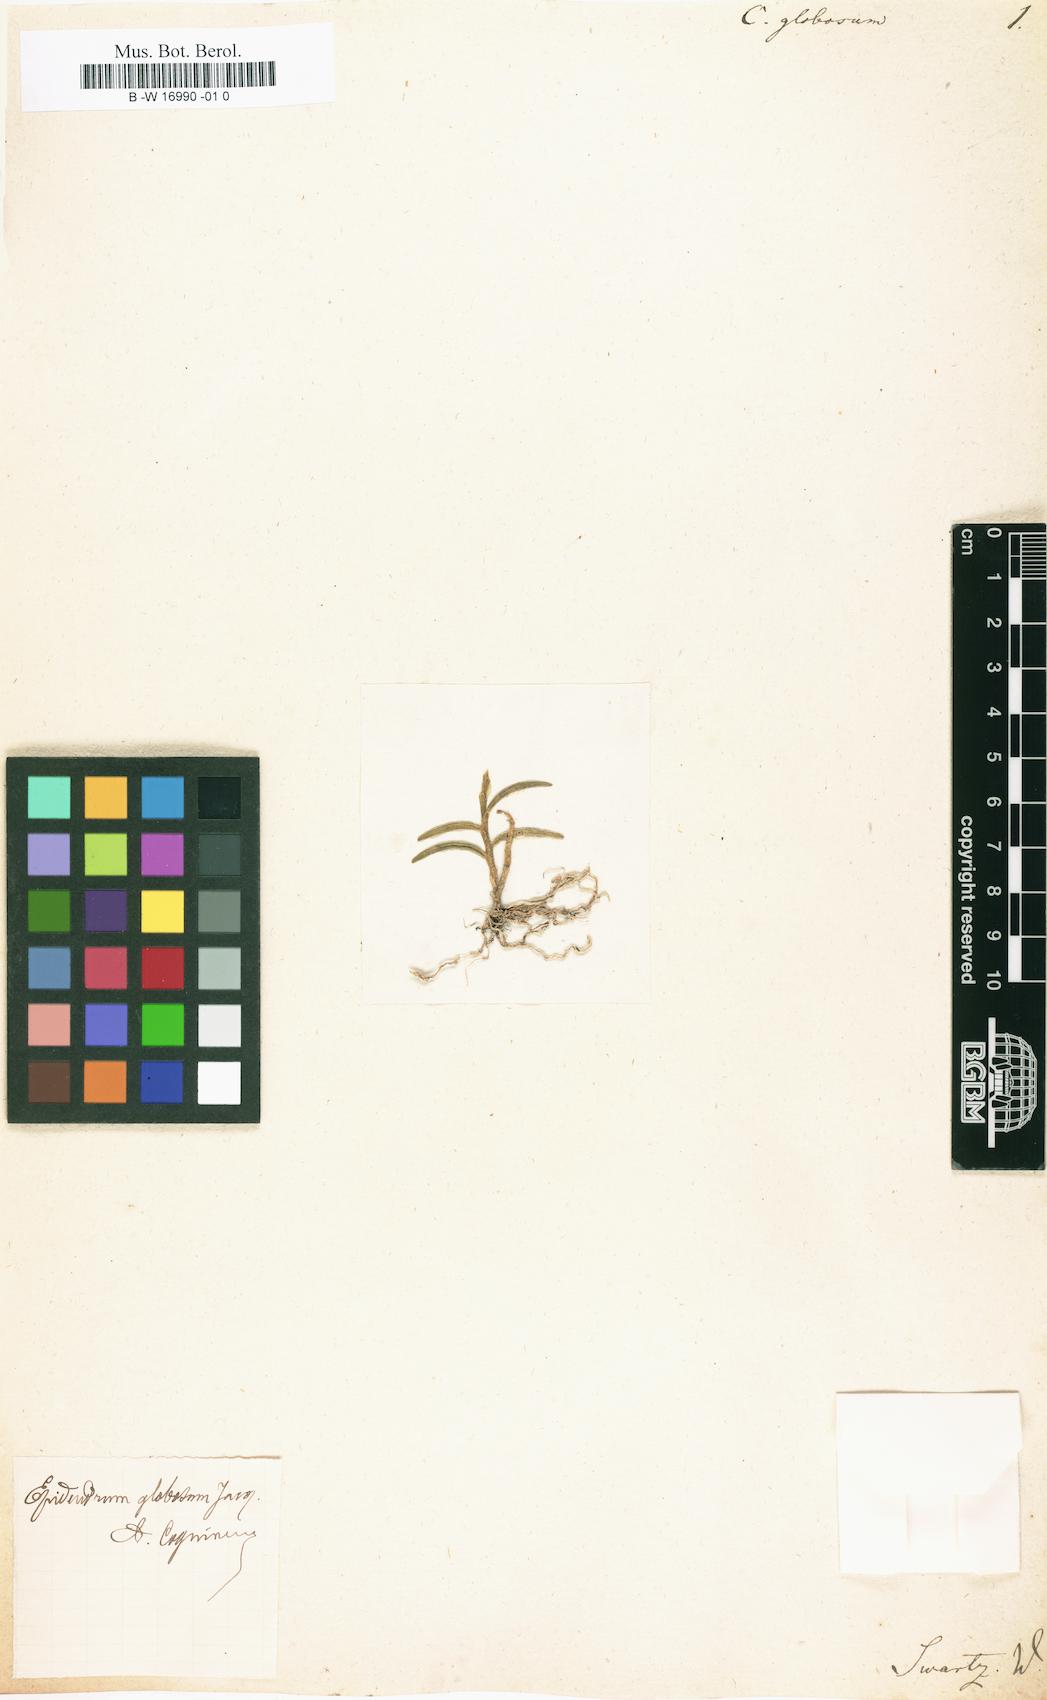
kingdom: Plantae
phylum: Tracheophyta
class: Liliopsida
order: Asparagales
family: Orchidaceae
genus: Jacquiniella
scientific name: Jacquiniella globosa
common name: Redblotch tufted orchid
